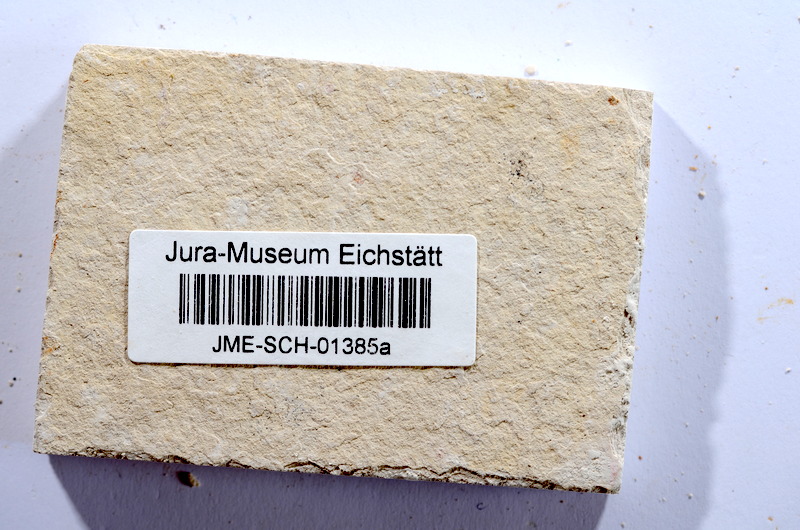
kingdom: Animalia
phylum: Chordata
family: Ascalaboidae
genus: Tharsis
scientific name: Tharsis dubius
